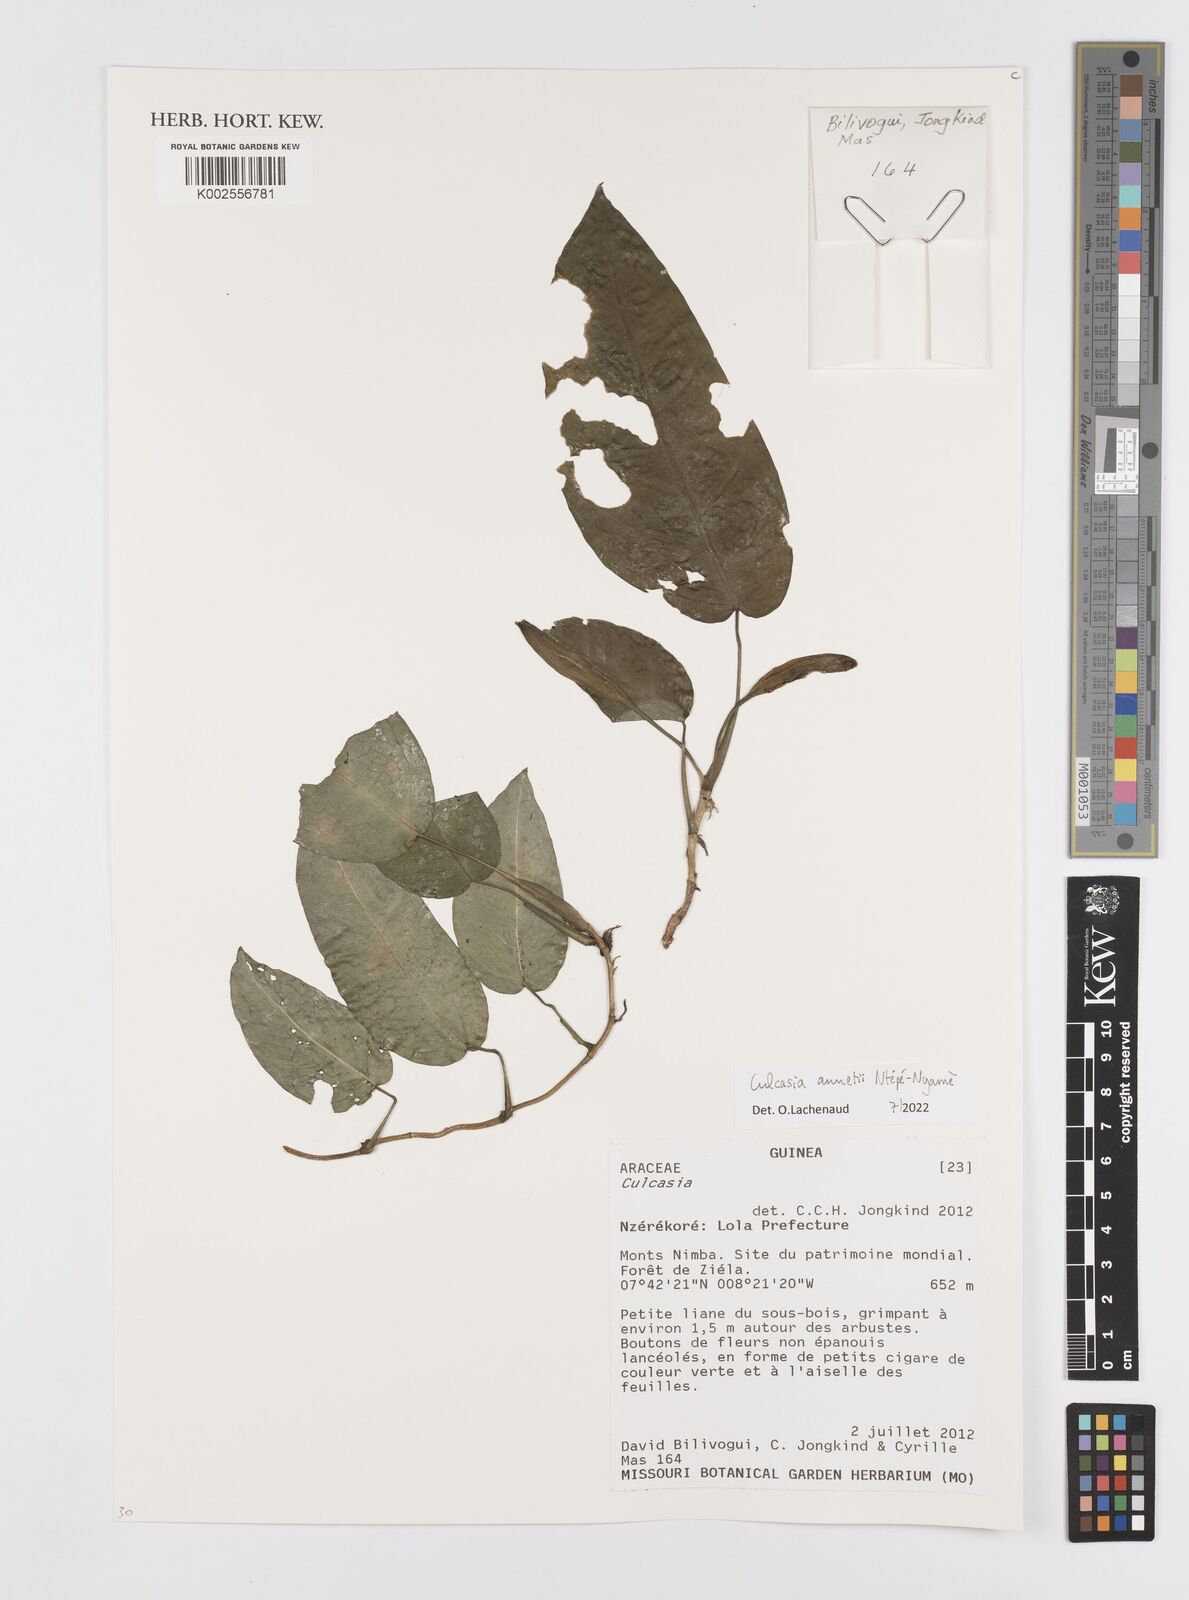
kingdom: Plantae
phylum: Tracheophyta
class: Liliopsida
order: Alismatales
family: Araceae
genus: Culcasia
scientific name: Culcasia
